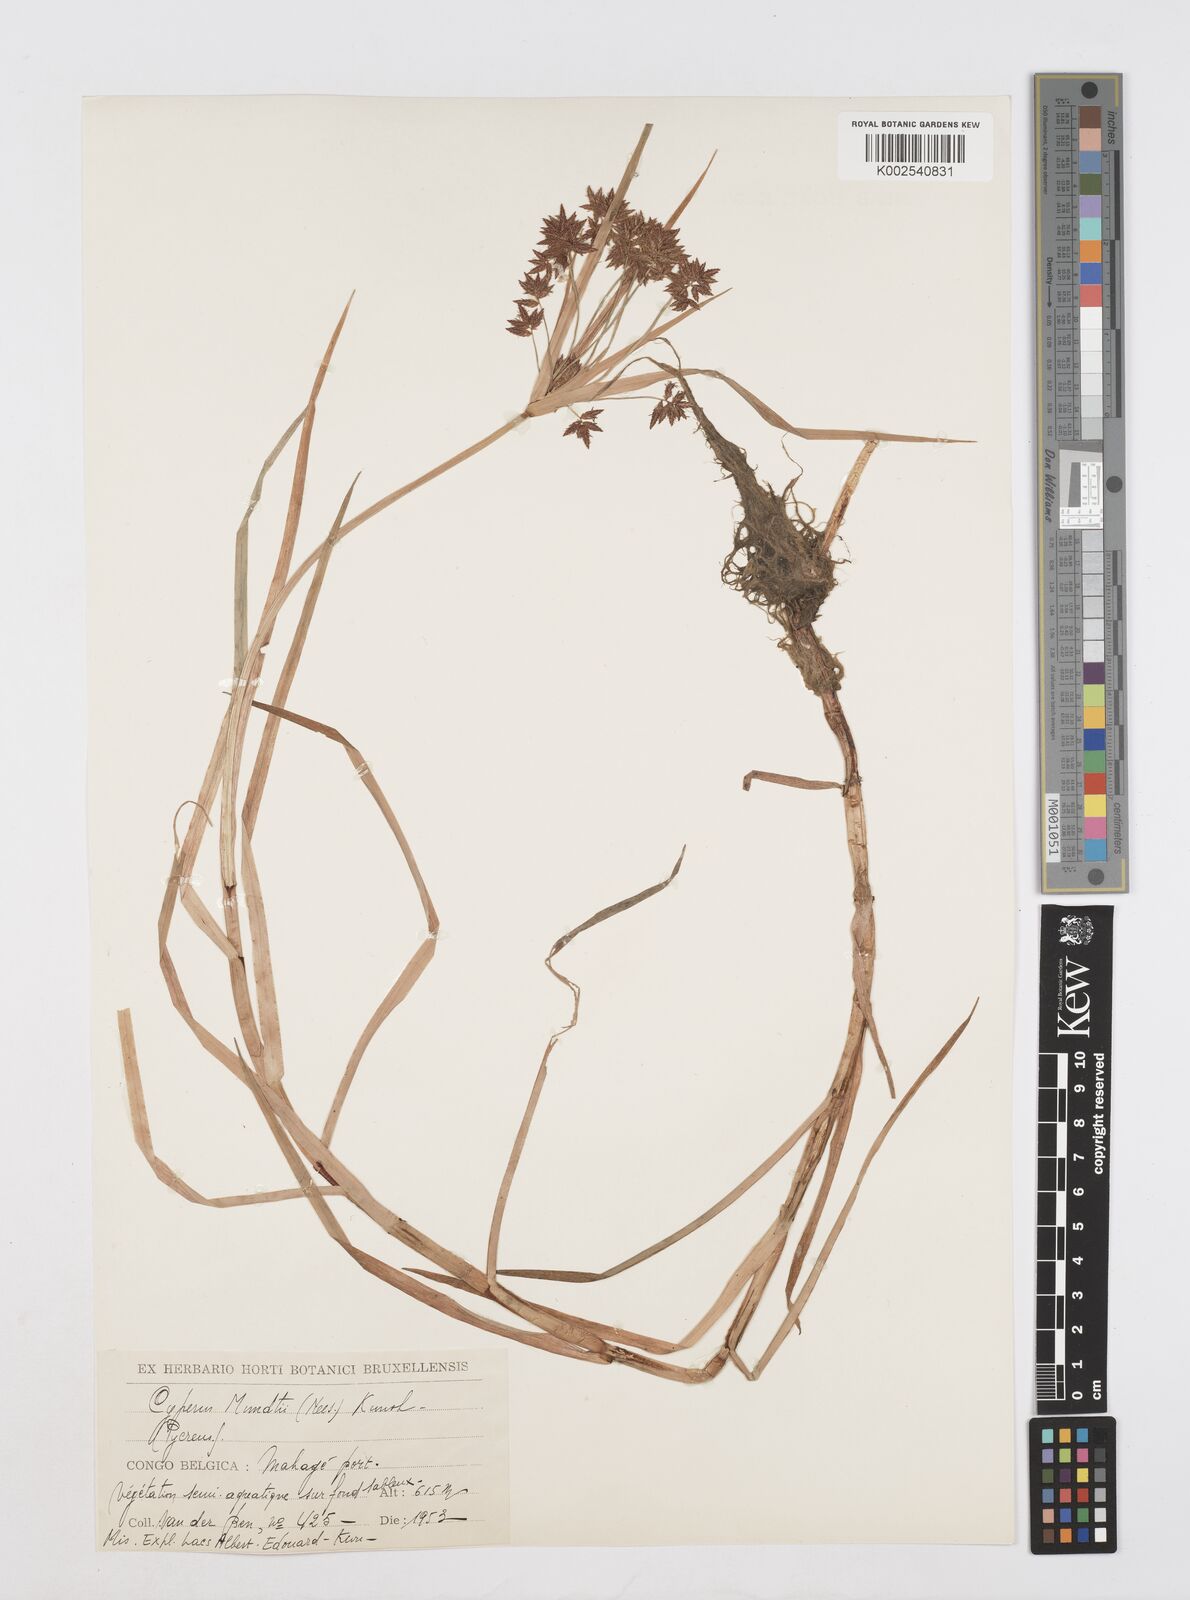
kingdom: Plantae
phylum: Tracheophyta
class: Liliopsida
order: Poales
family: Cyperaceae
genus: Cyperus
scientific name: Cyperus mundii
